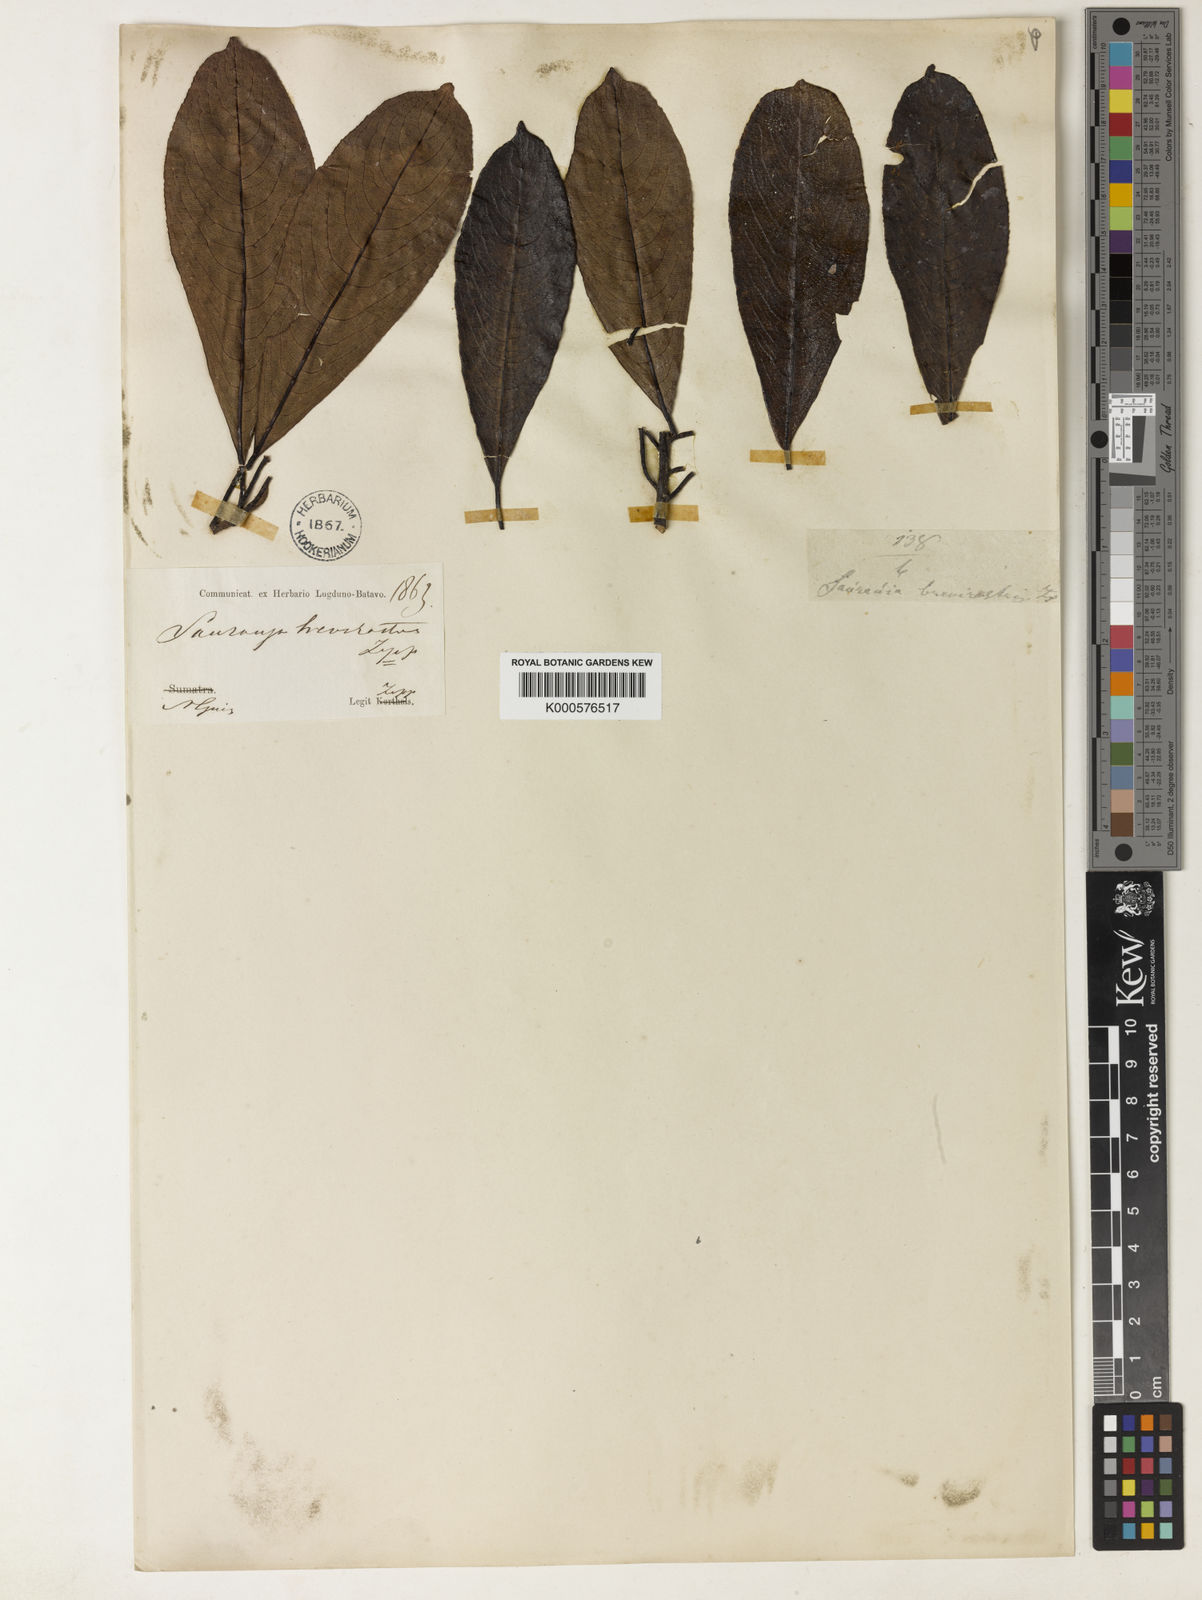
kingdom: Plantae
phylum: Tracheophyta
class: Magnoliopsida
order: Ericales
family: Actinidiaceae
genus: Saurauia
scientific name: Saurauia brevirostris
